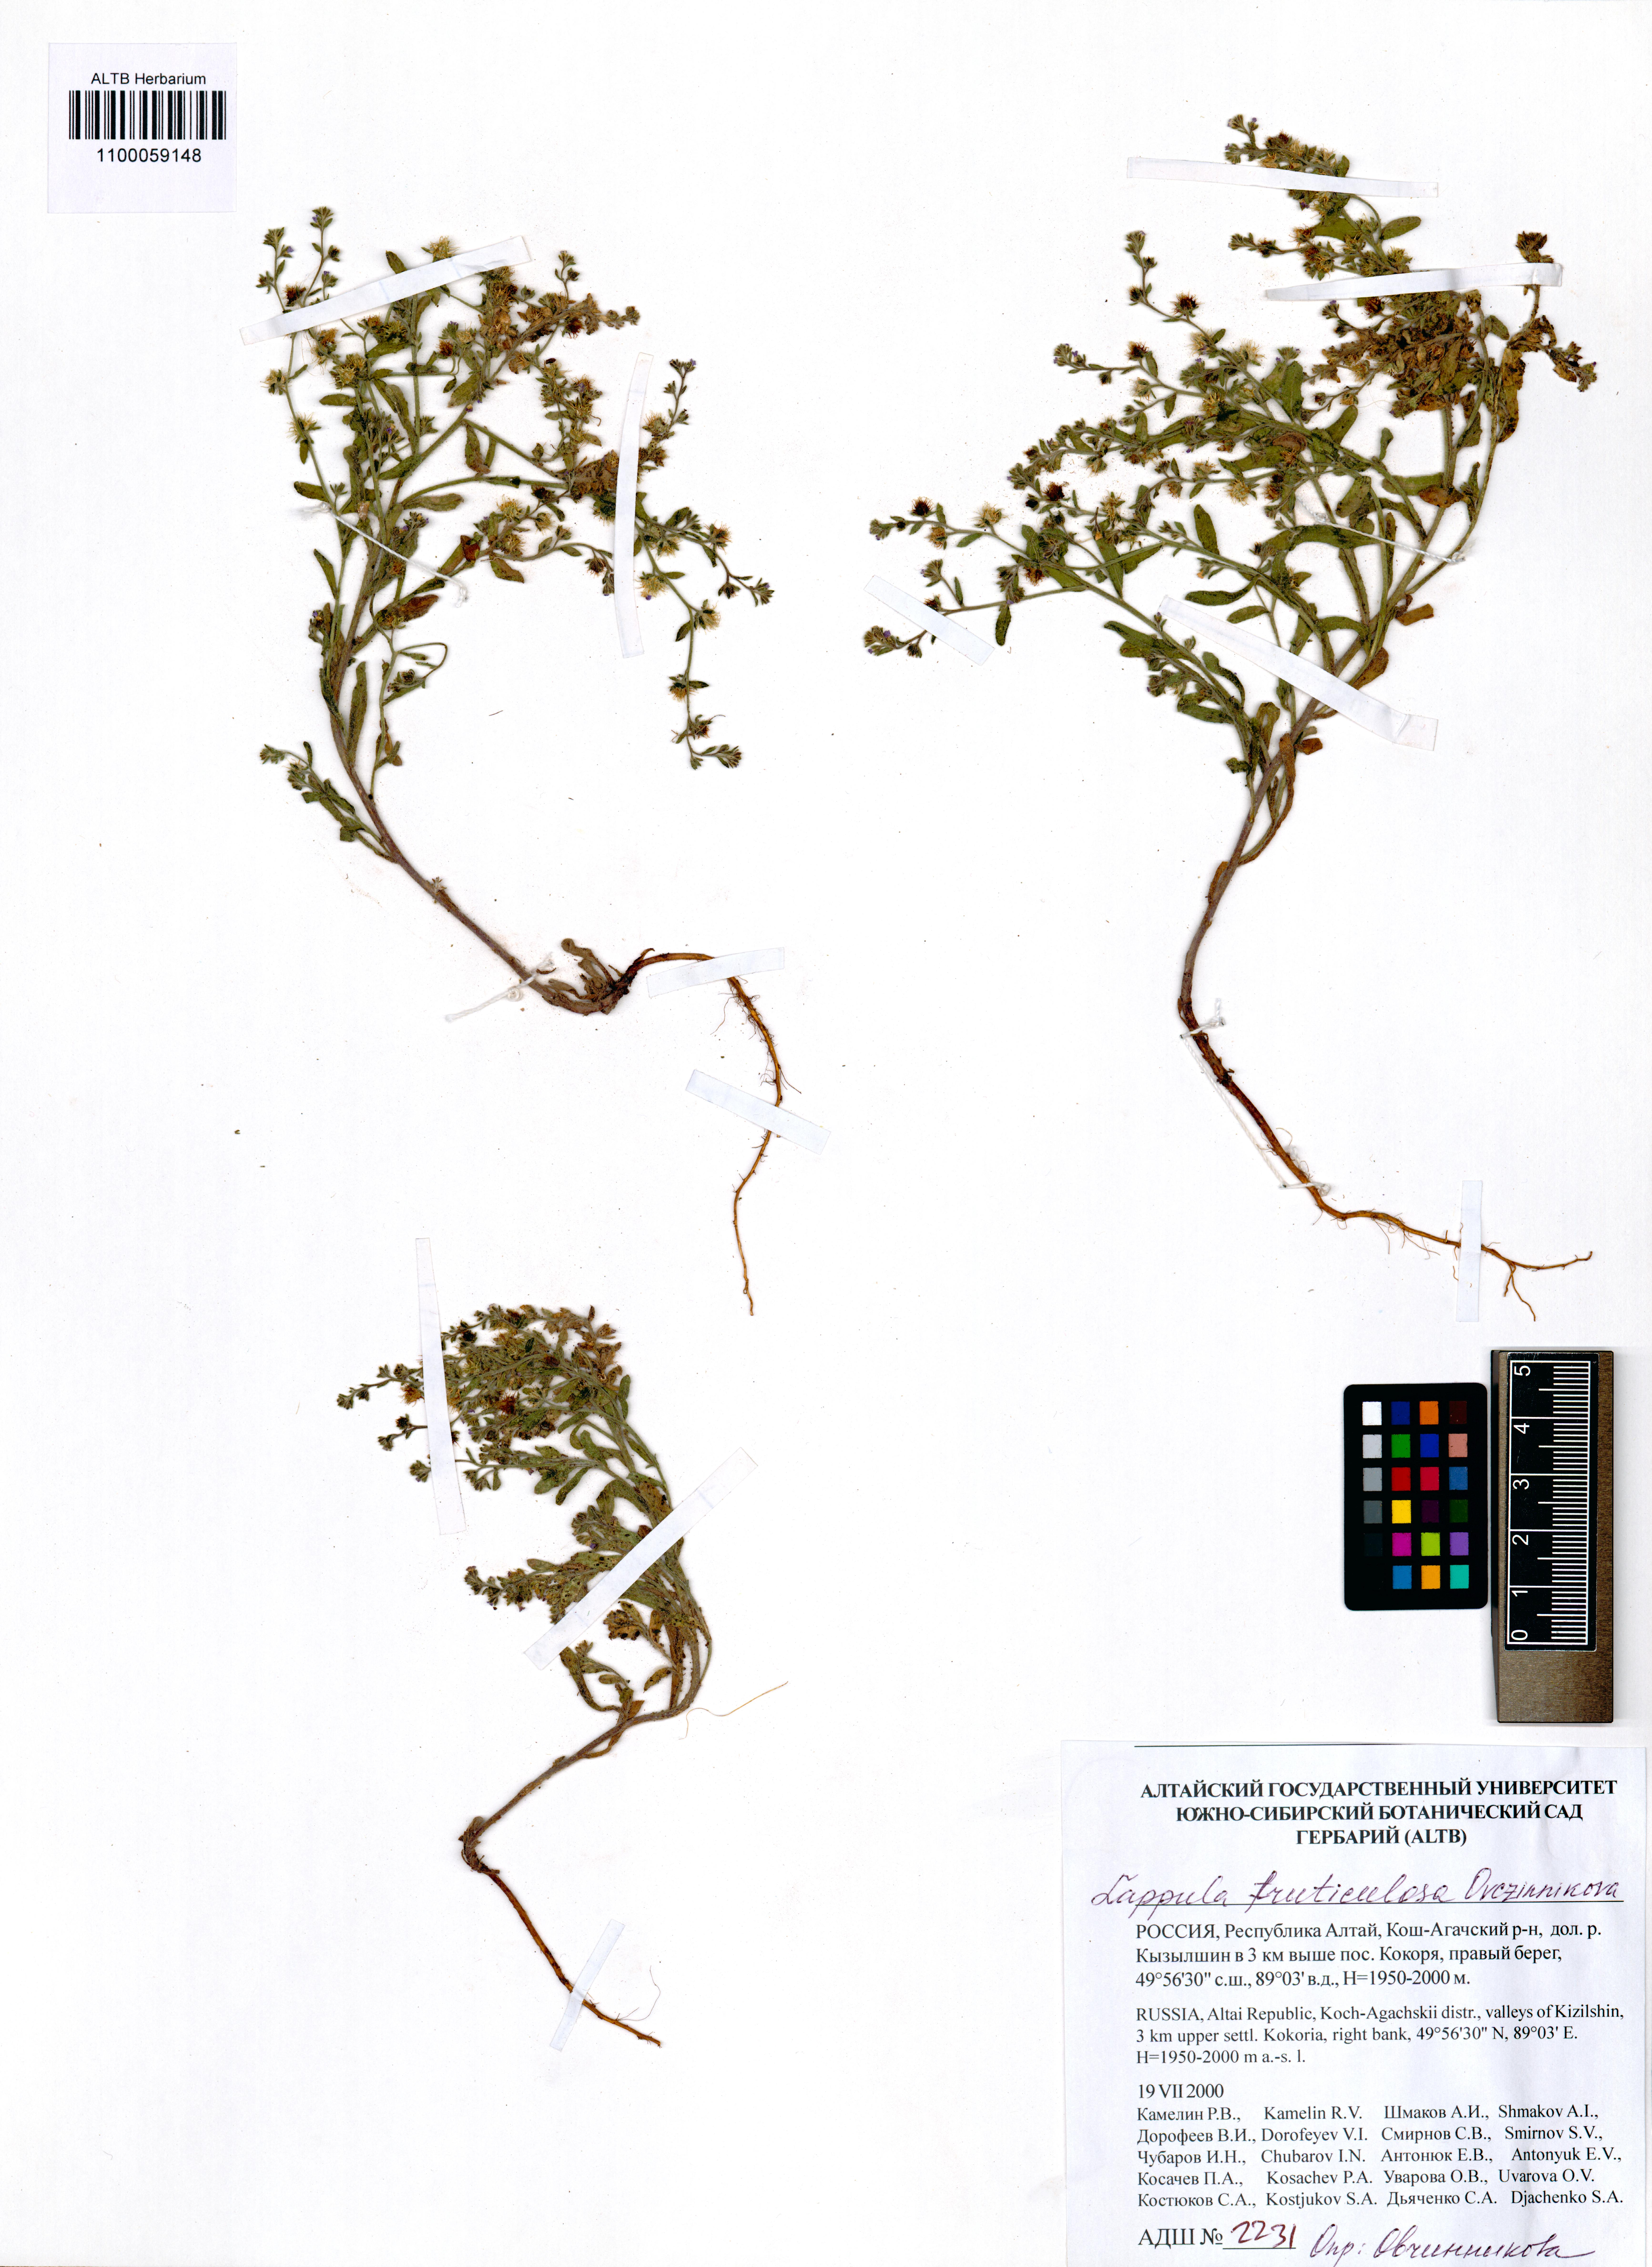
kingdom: Plantae
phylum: Tracheophyta
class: Magnoliopsida
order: Boraginales
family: Boraginaceae
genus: Lappula
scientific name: Lappula fruticulosa
